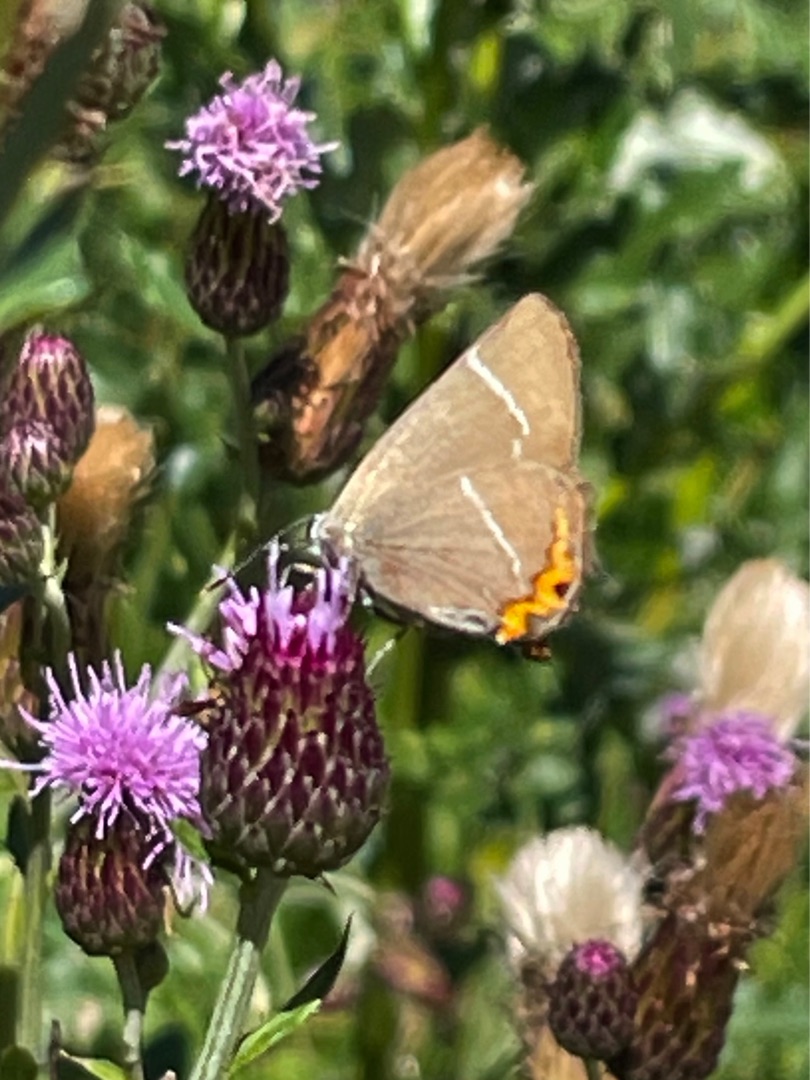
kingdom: Animalia
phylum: Arthropoda
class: Insecta
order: Lepidoptera
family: Lycaenidae
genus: Satyrium
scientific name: Satyrium w-album
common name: Det hvide W
